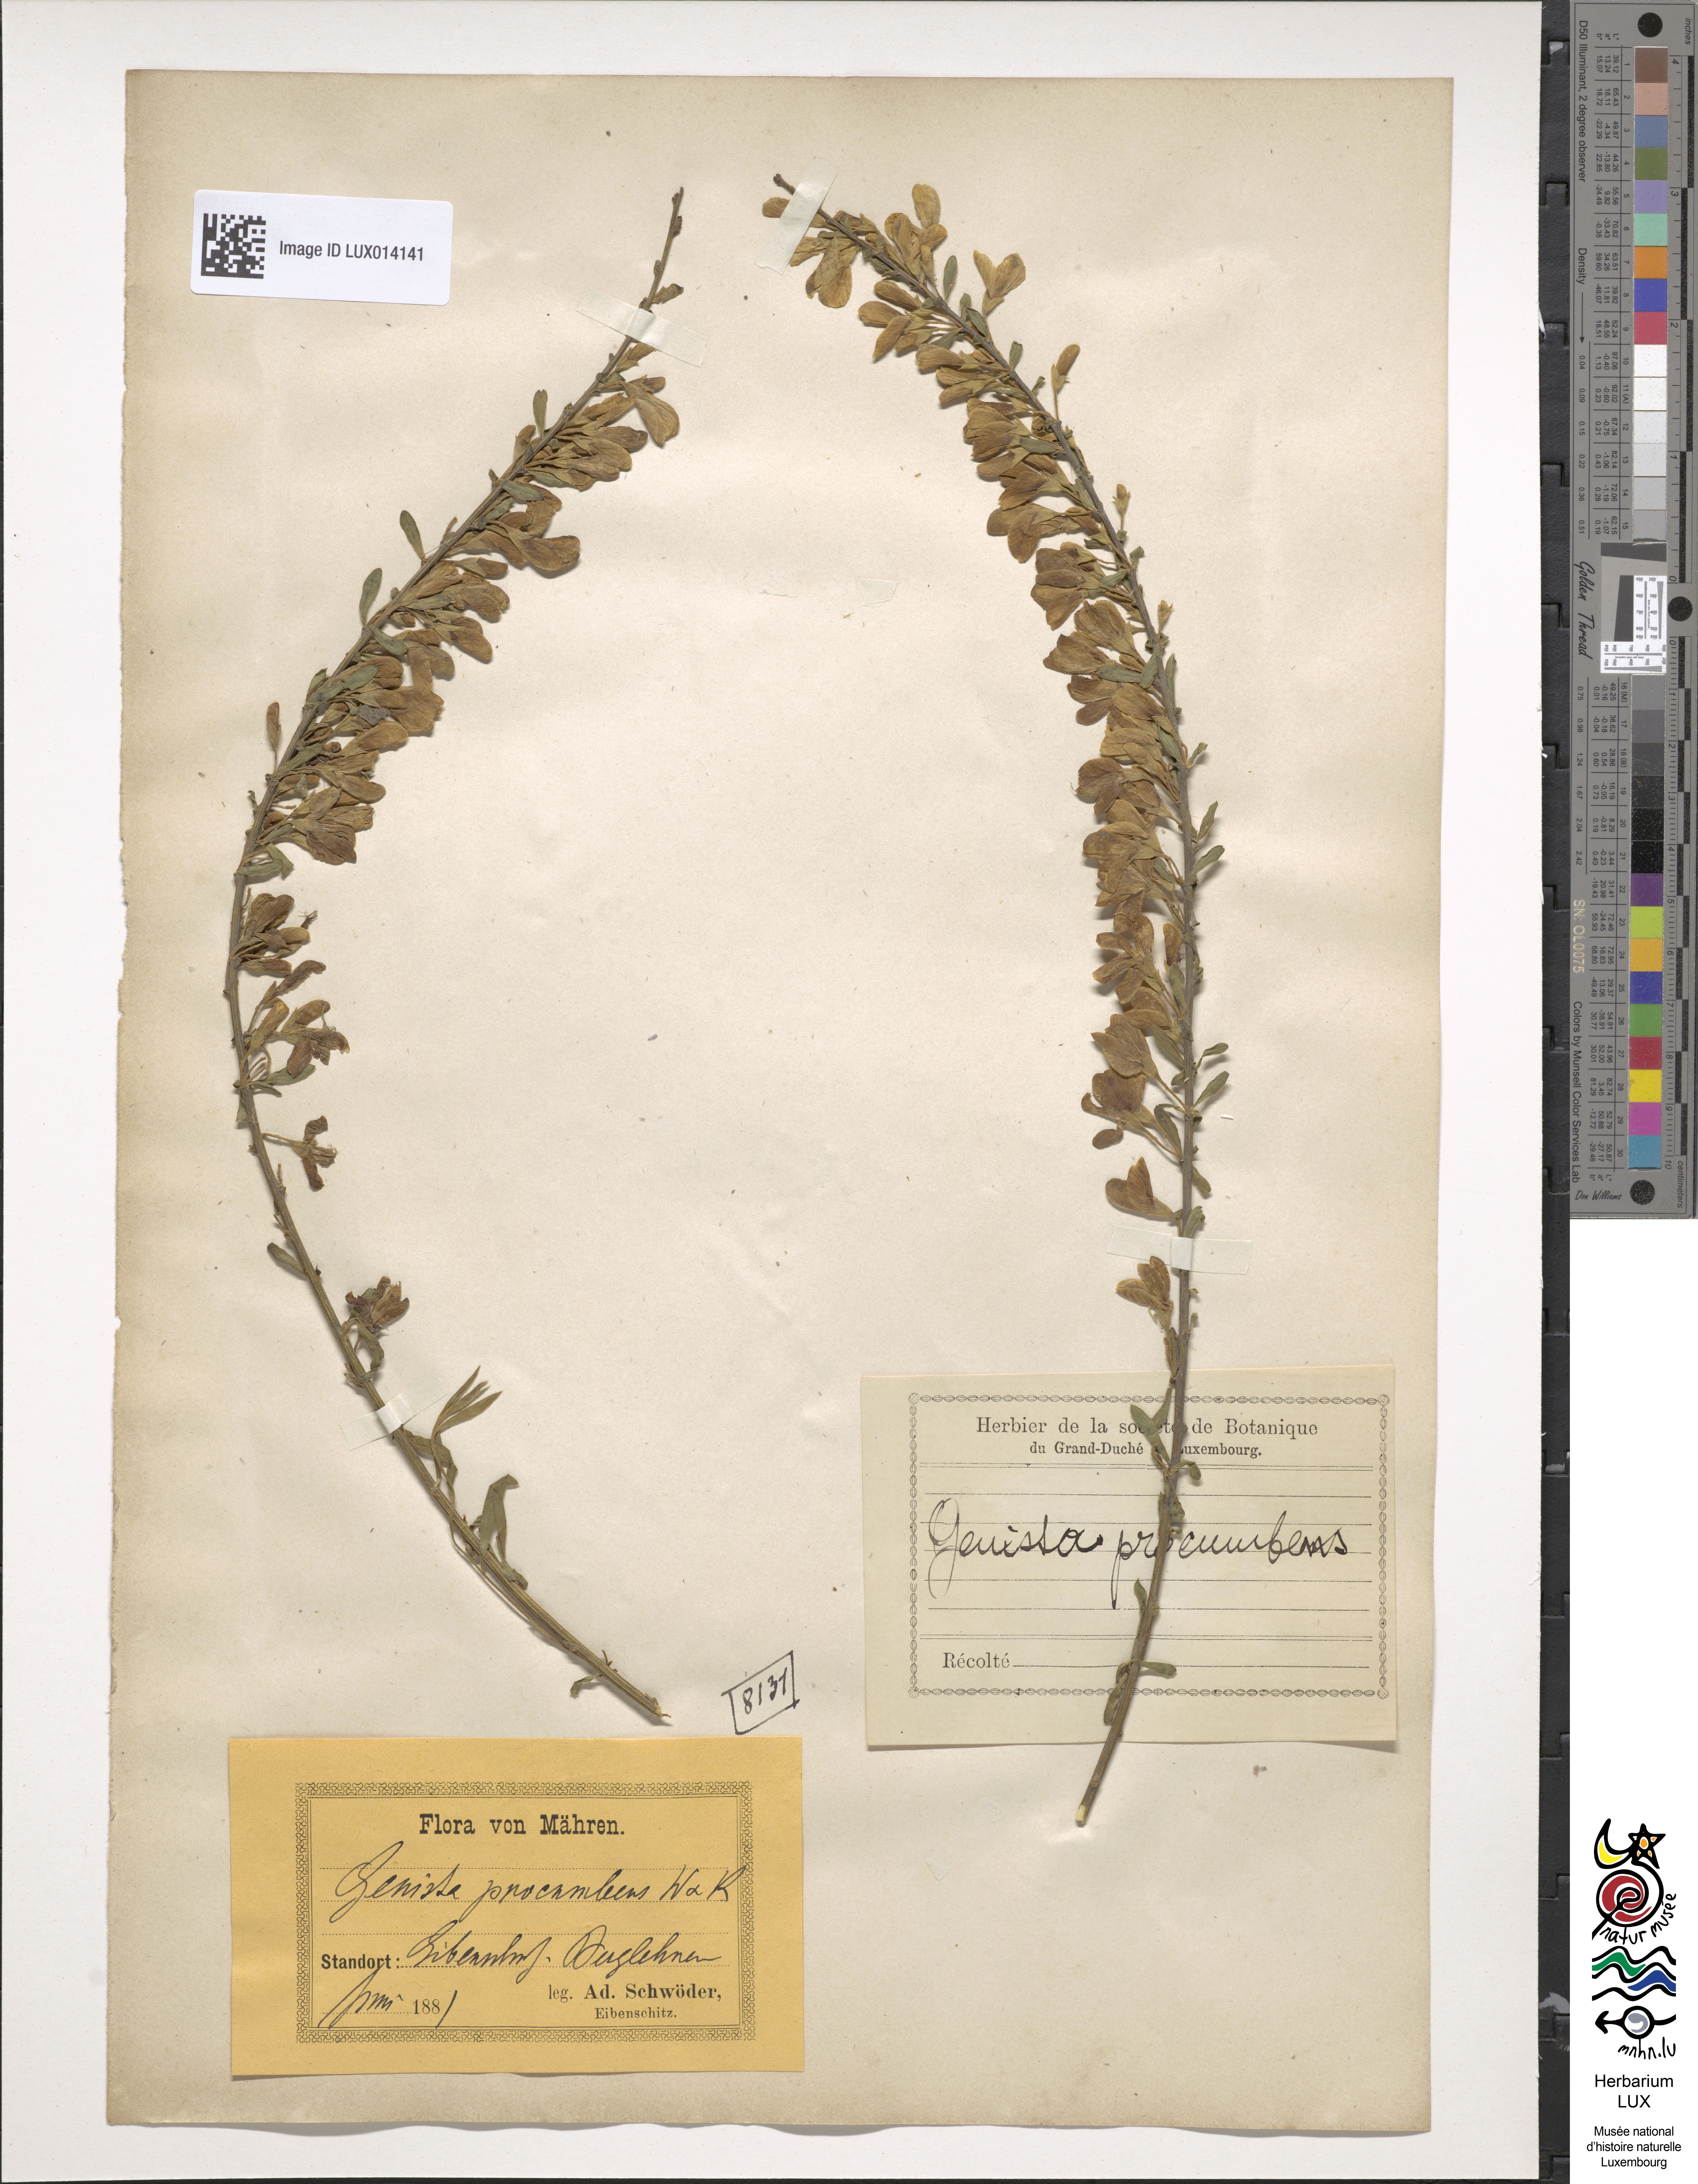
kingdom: Plantae
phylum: Tracheophyta
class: Magnoliopsida
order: Fabales
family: Fabaceae
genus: Cytisus
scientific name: Cytisus procumbens
